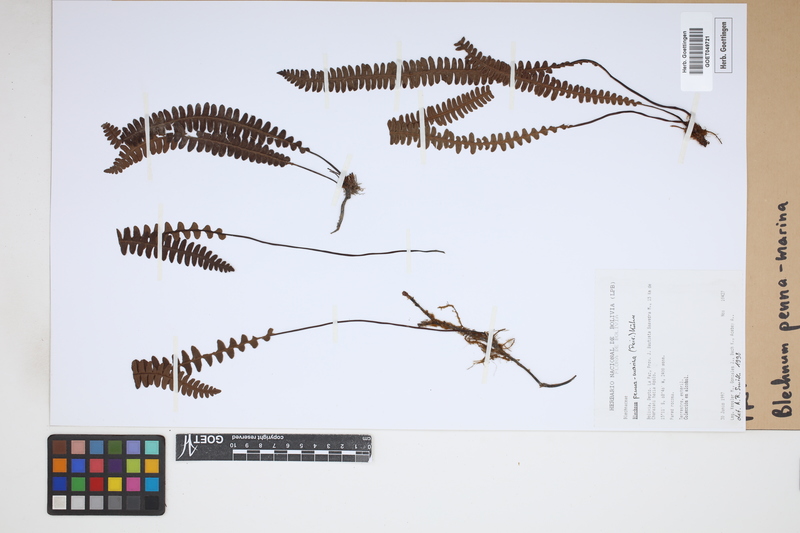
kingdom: Plantae
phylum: Tracheophyta
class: Polypodiopsida
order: Polypodiales
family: Blechnaceae
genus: Austroblechnum
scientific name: Austroblechnum penna-marina
